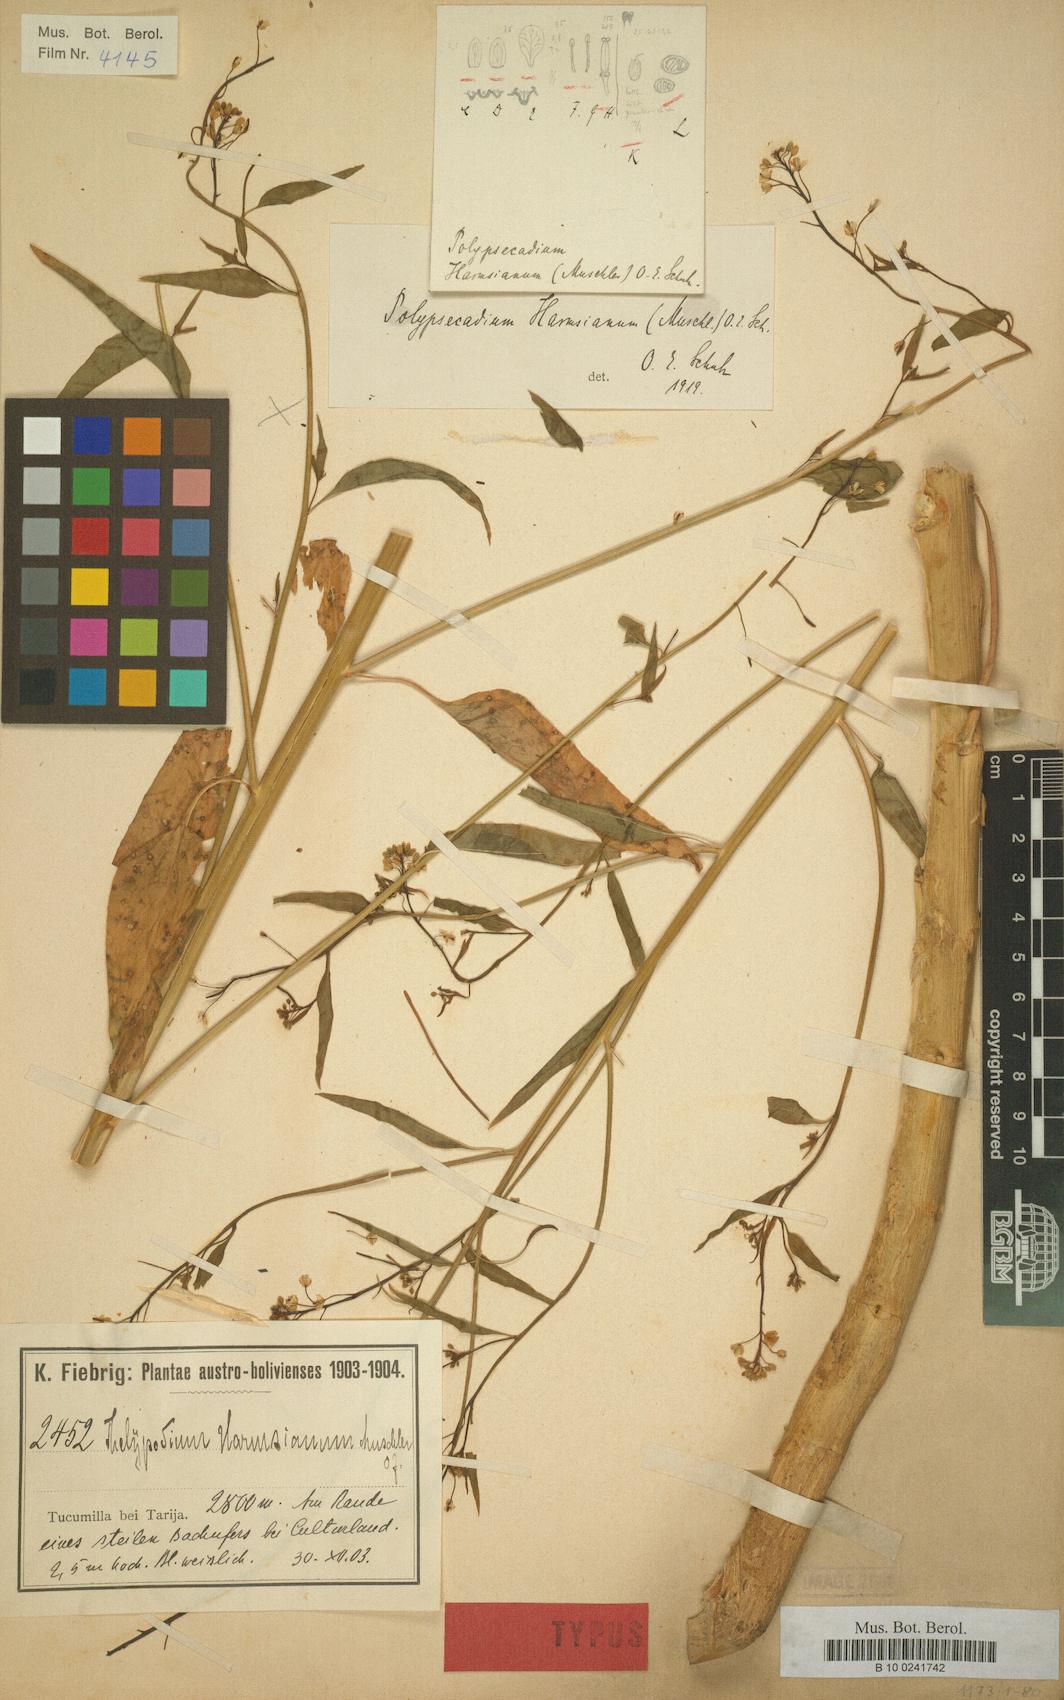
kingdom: Plantae
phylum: Tracheophyta
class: Magnoliopsida
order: Brassicales
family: Brassicaceae
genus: Polypsecadium
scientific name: Polypsecadium harmsianum
